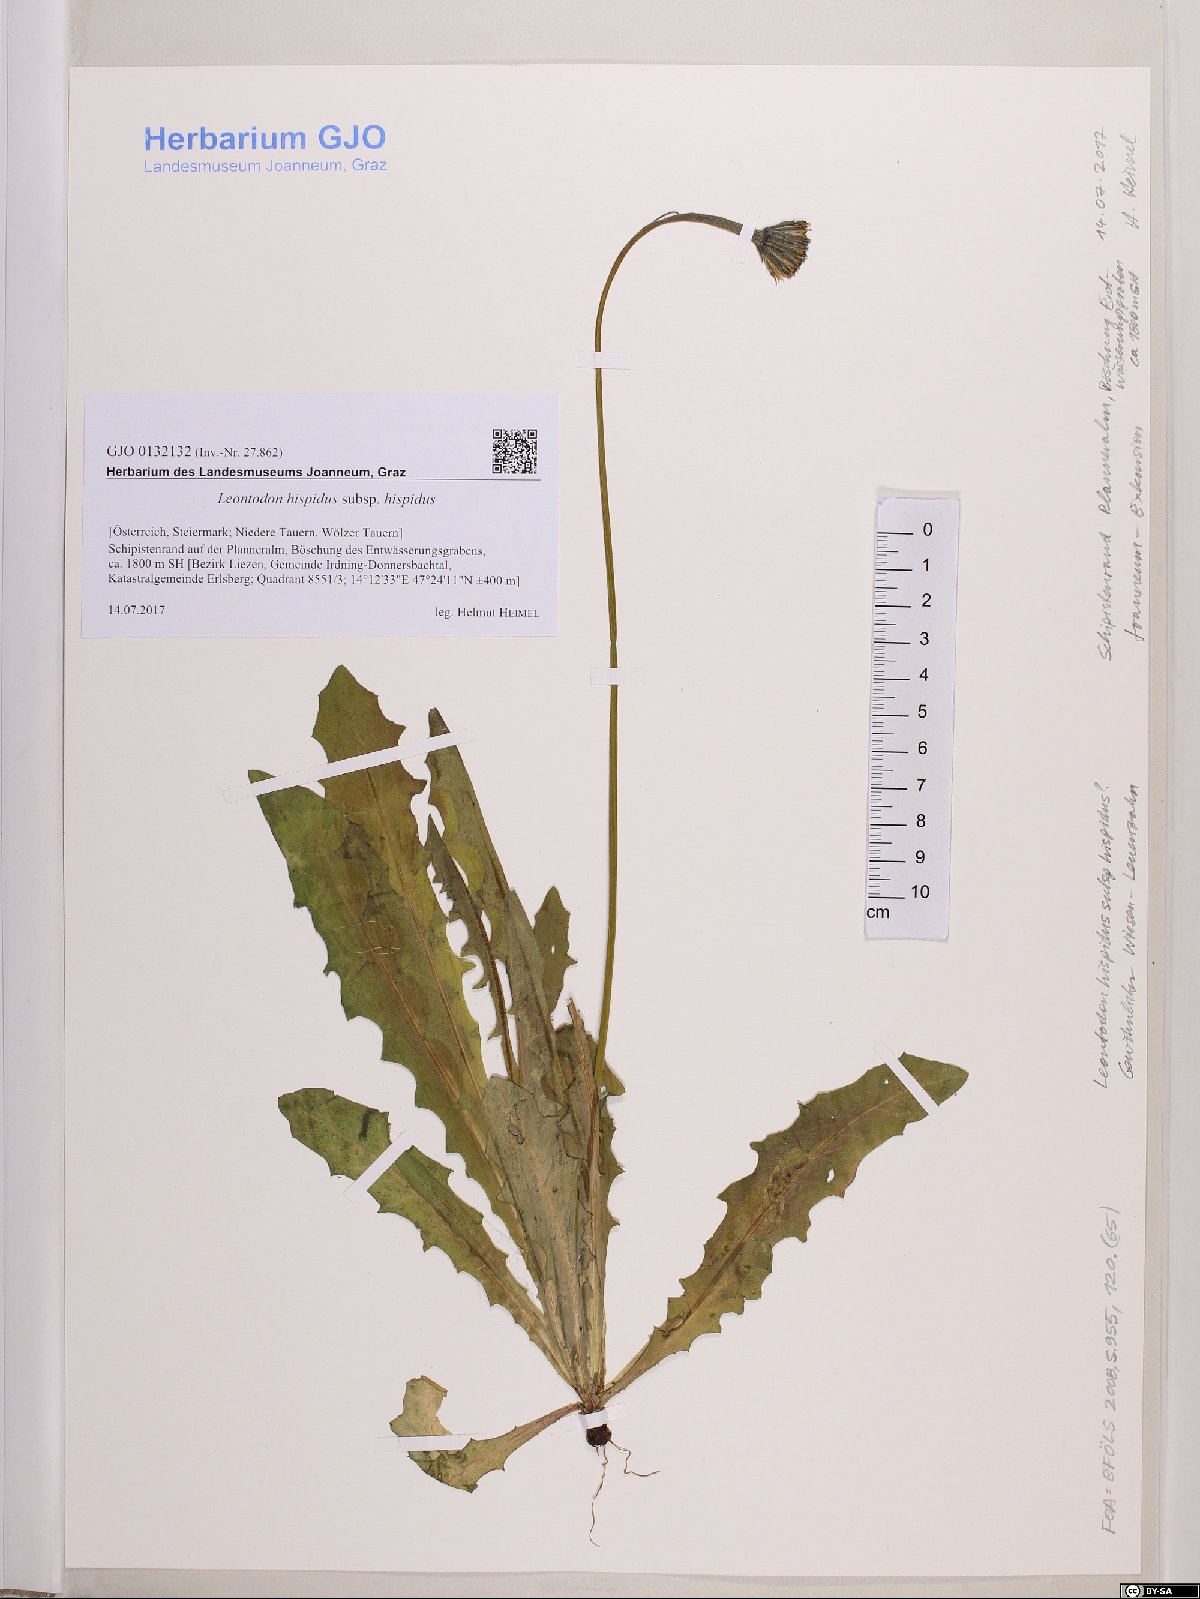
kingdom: Plantae
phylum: Tracheophyta
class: Magnoliopsida
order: Asterales
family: Asteraceae
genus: Leontodon
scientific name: Leontodon hispidus
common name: Rough hawkbit
